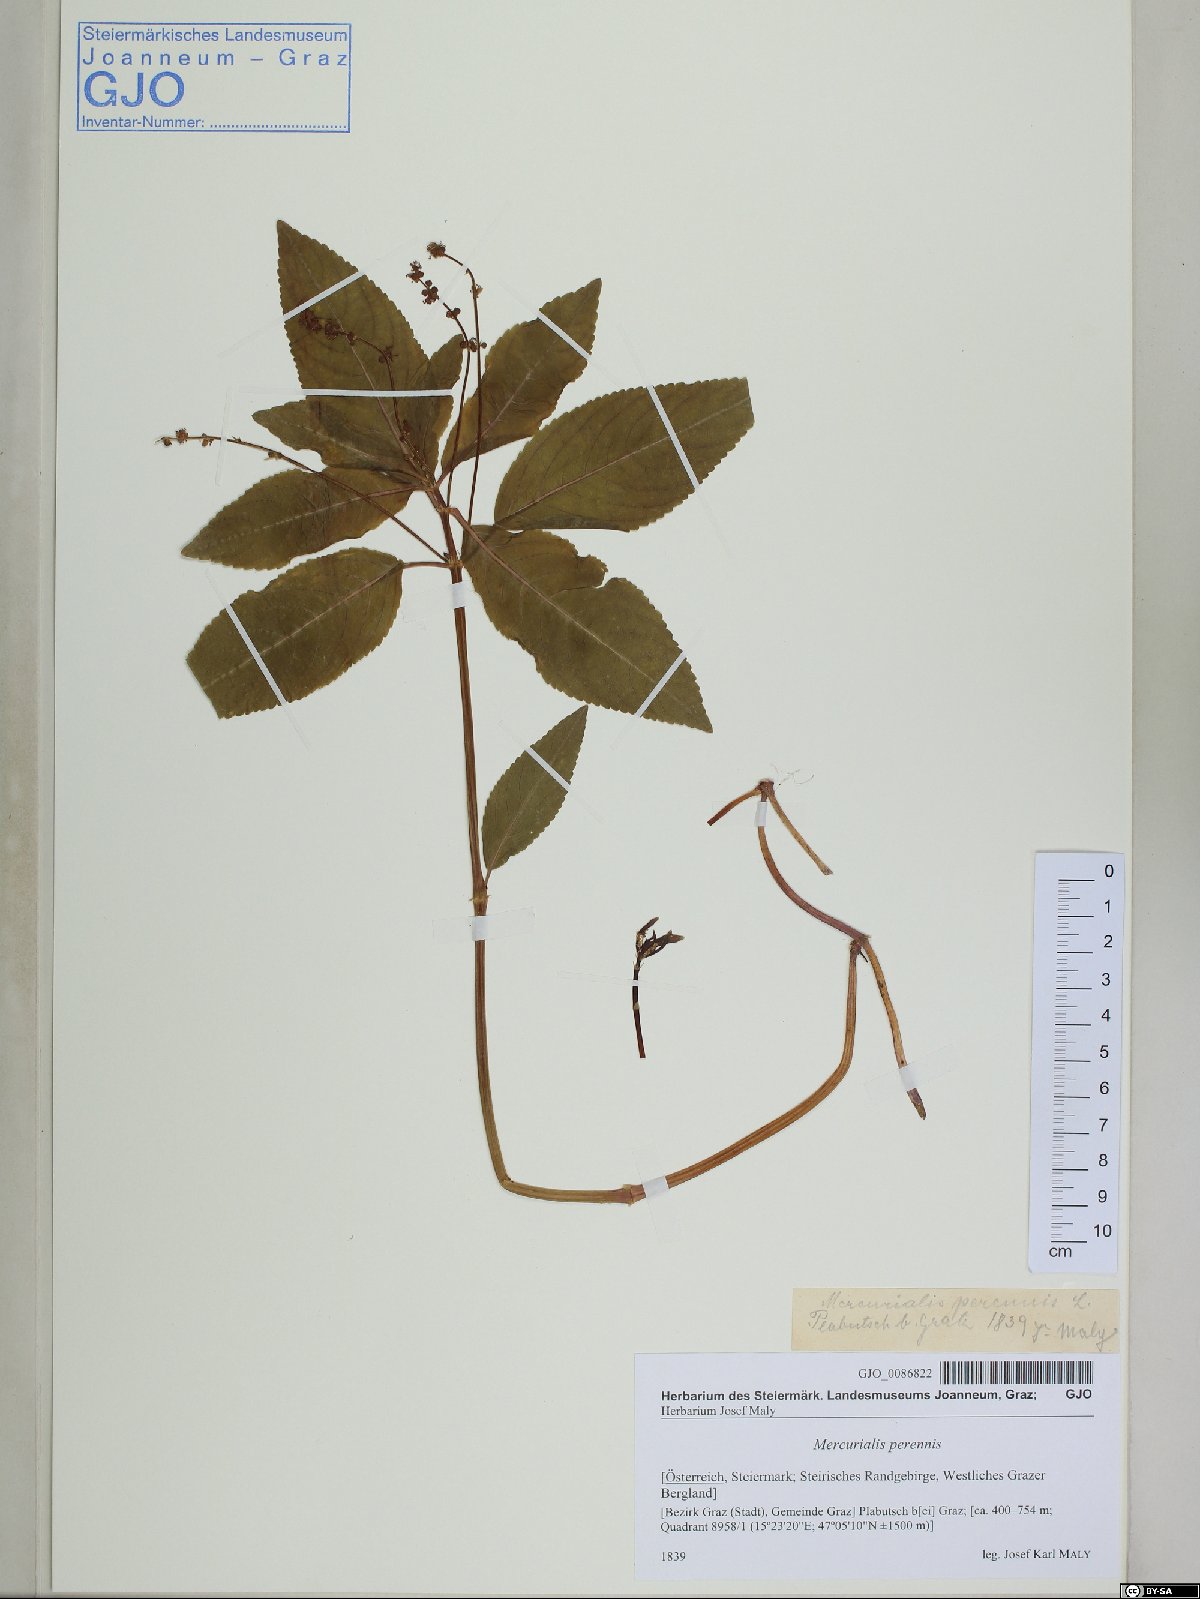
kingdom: Plantae
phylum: Tracheophyta
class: Magnoliopsida
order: Malpighiales
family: Euphorbiaceae
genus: Mercurialis
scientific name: Mercurialis perennis
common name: Dog mercury
